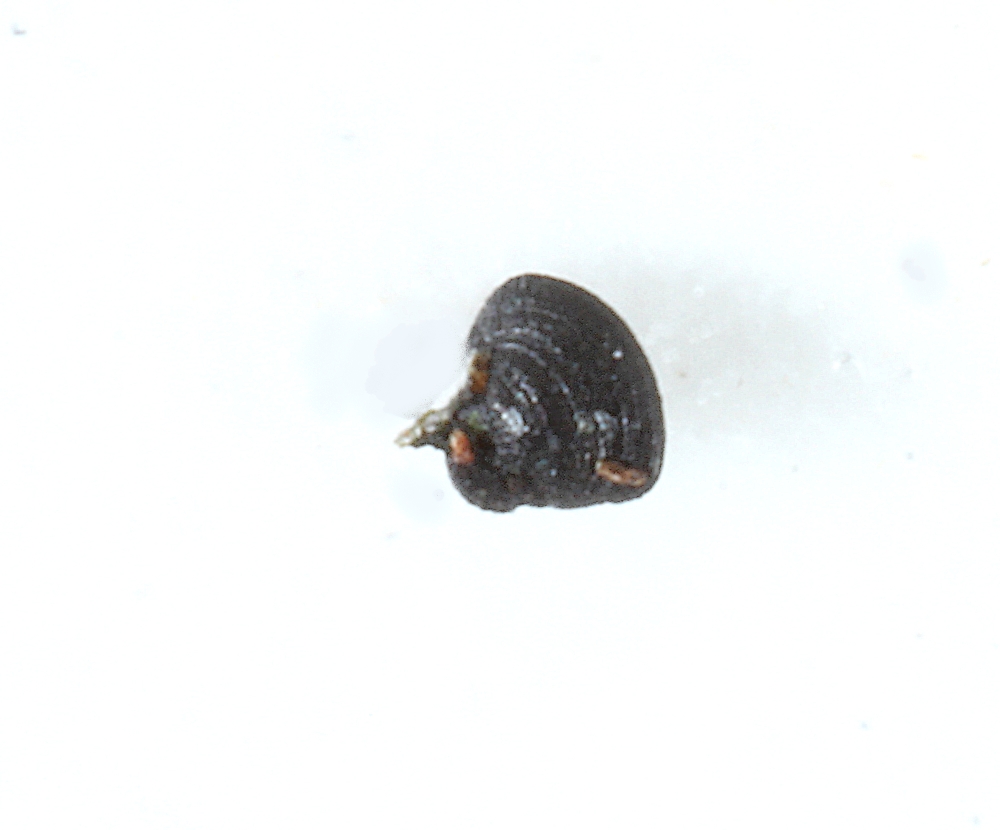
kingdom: Fungi
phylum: Ascomycota
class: Dothideomycetes
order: Mytilinidiales
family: Mytilinidiaceae
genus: Mytilinidion
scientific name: Mytilinidion rhenanum
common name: almindelig kulmusling
